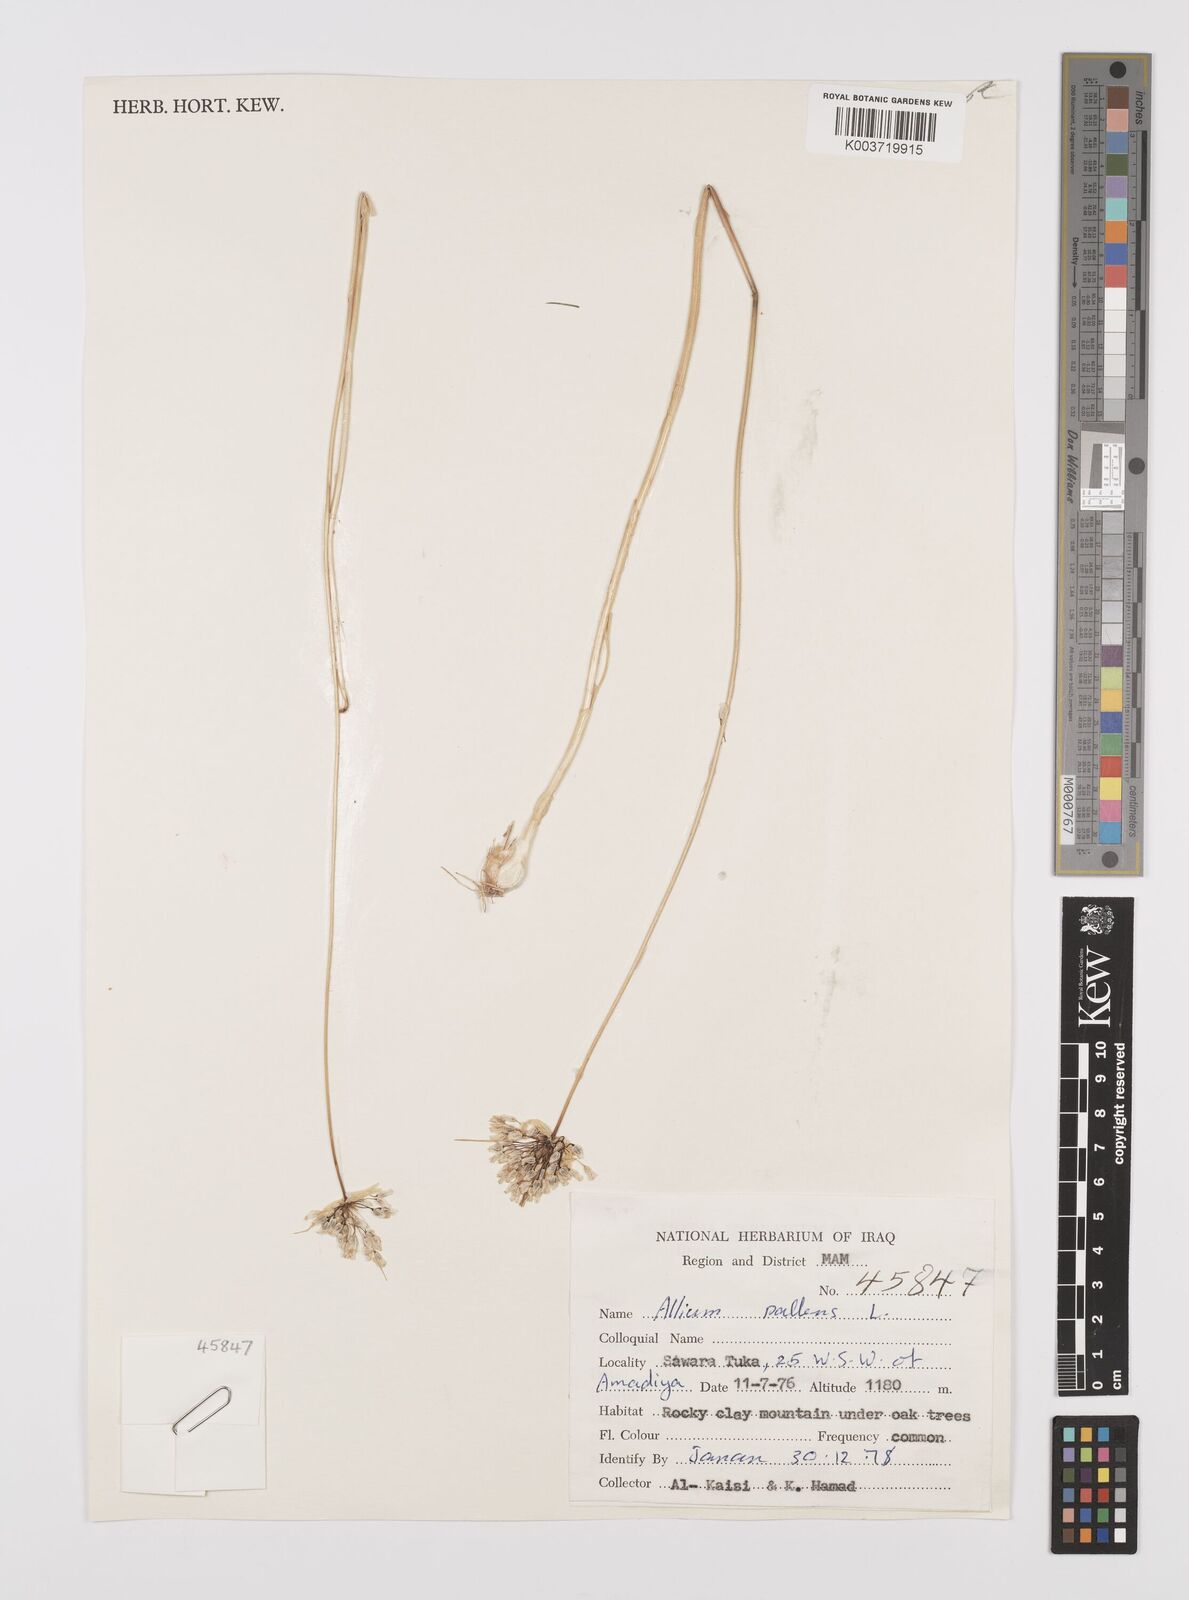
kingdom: Plantae
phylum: Tracheophyta
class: Liliopsida
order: Asparagales
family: Amaryllidaceae
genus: Allium
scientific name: Allium pallens
